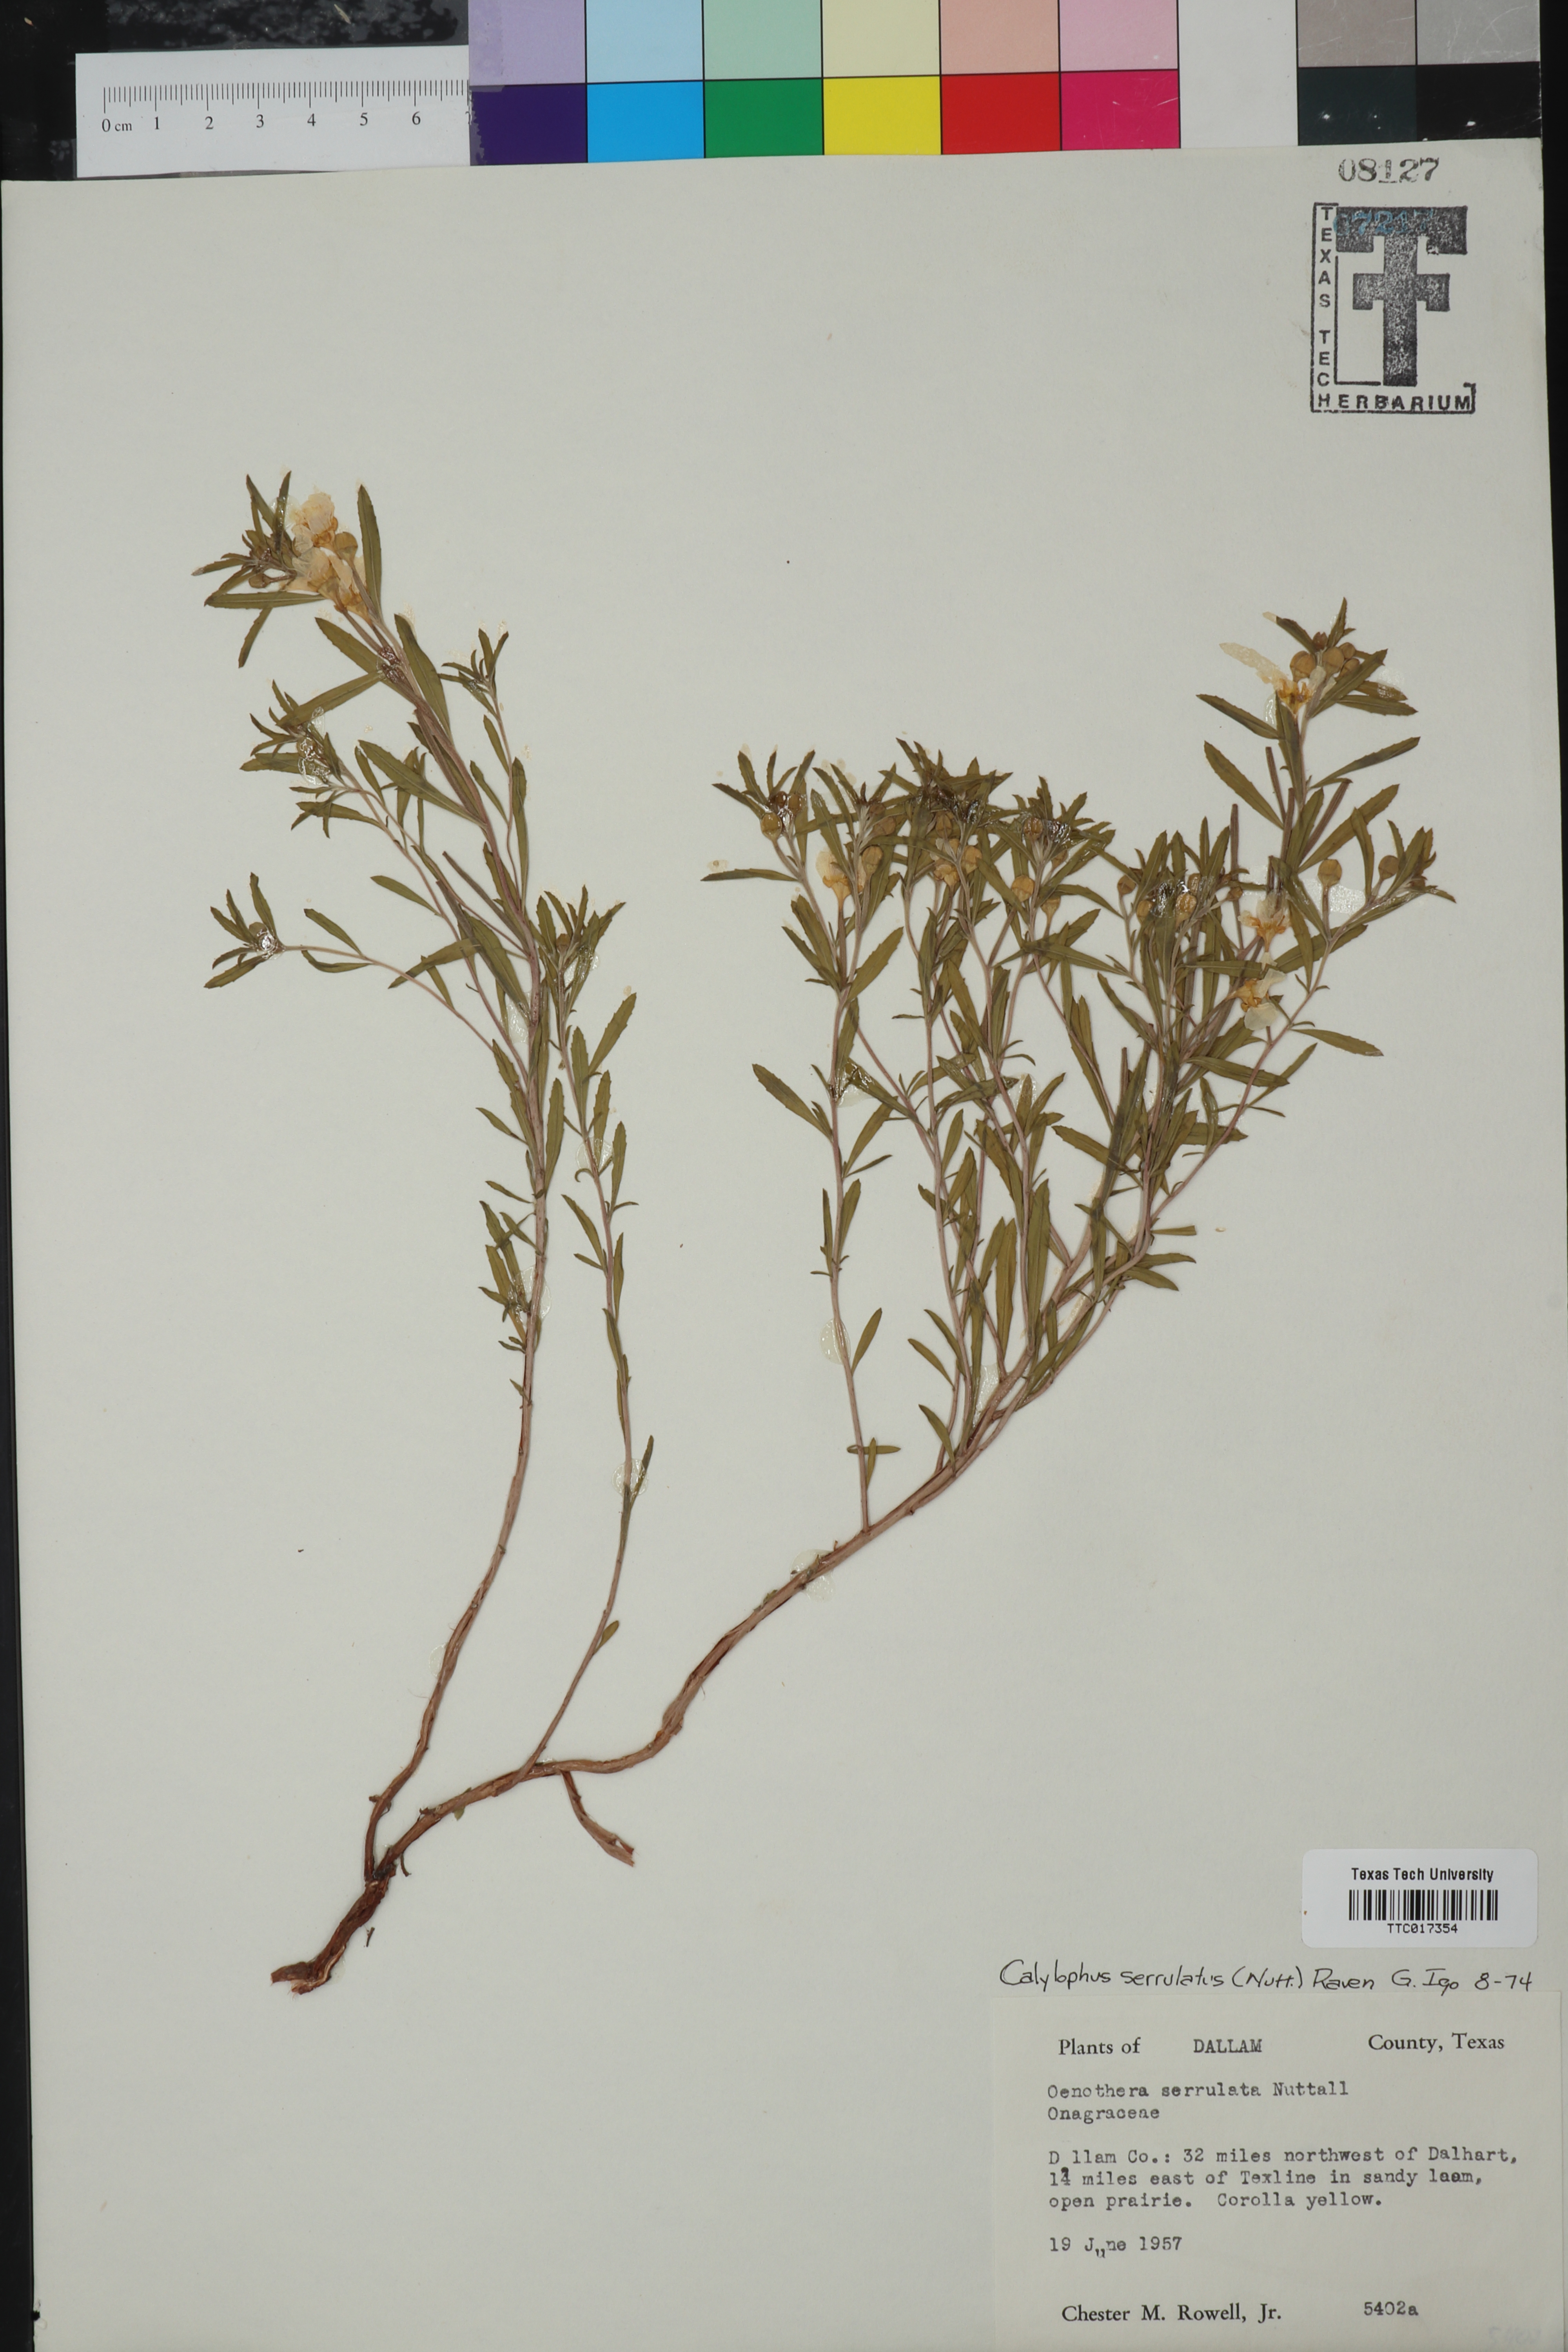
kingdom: Plantae
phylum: Tracheophyta
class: Magnoliopsida
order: Myrtales
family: Onagraceae
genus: Oenothera
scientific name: Oenothera serrulata
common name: Half-shrub calylophus
